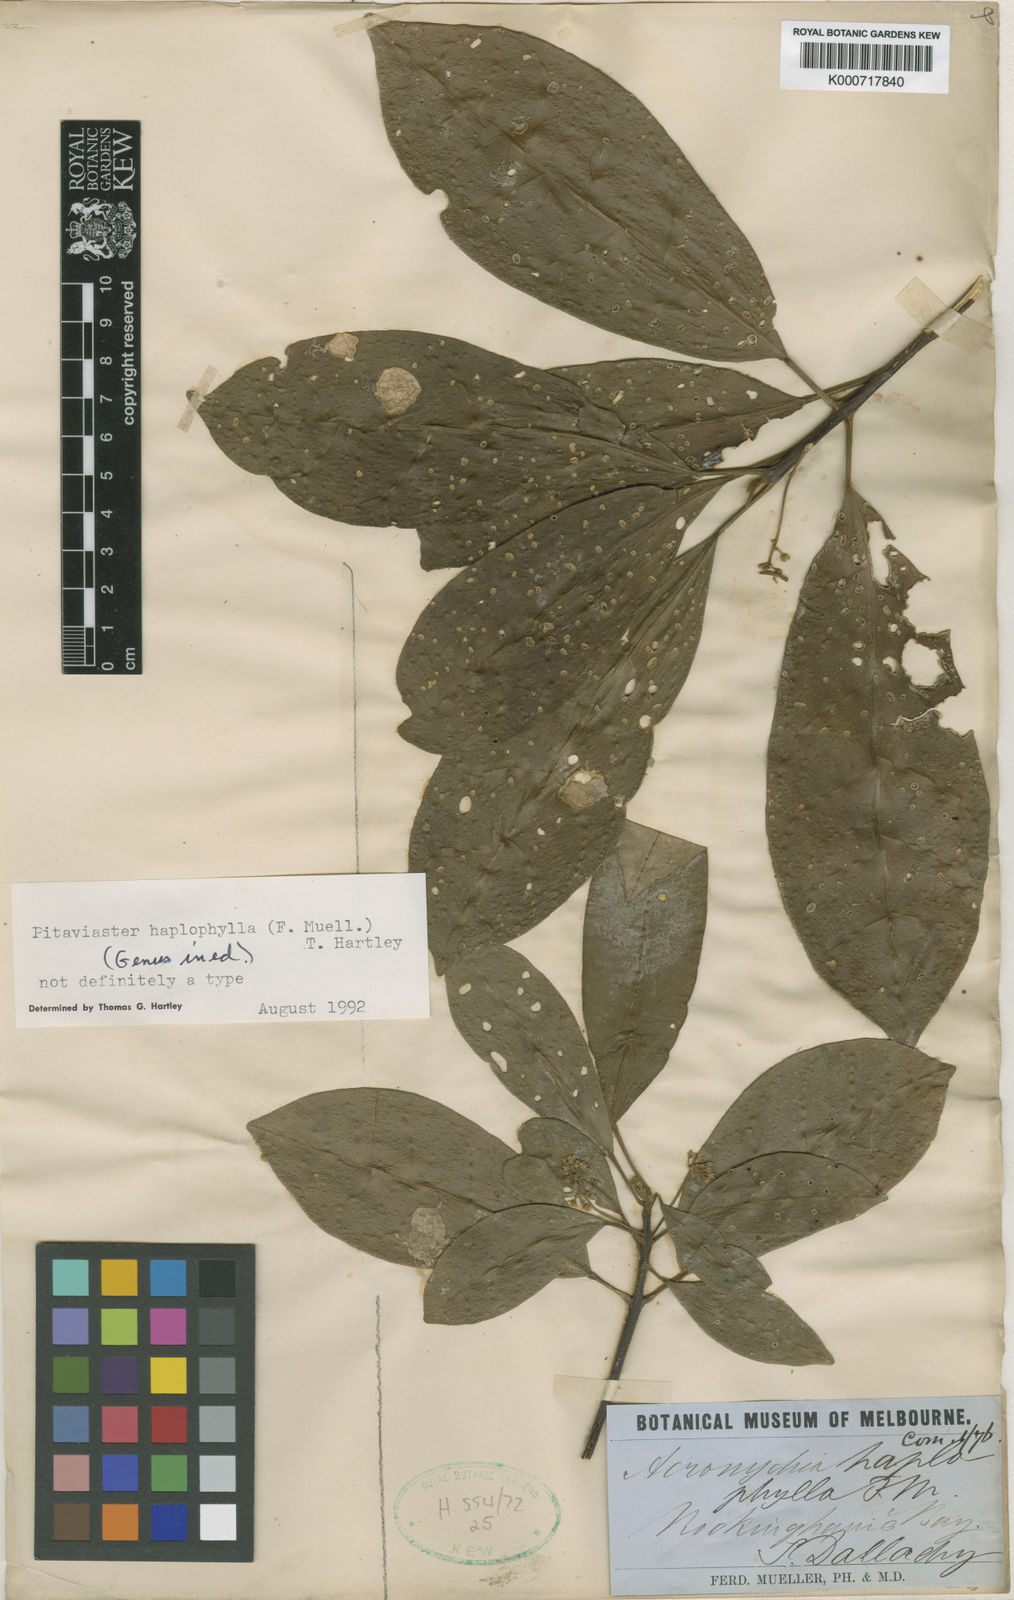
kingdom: Plantae
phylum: Tracheophyta
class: Magnoliopsida
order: Sapindales
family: Rutaceae
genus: Pitaviaster
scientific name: Pitaviaster haplophyllus
